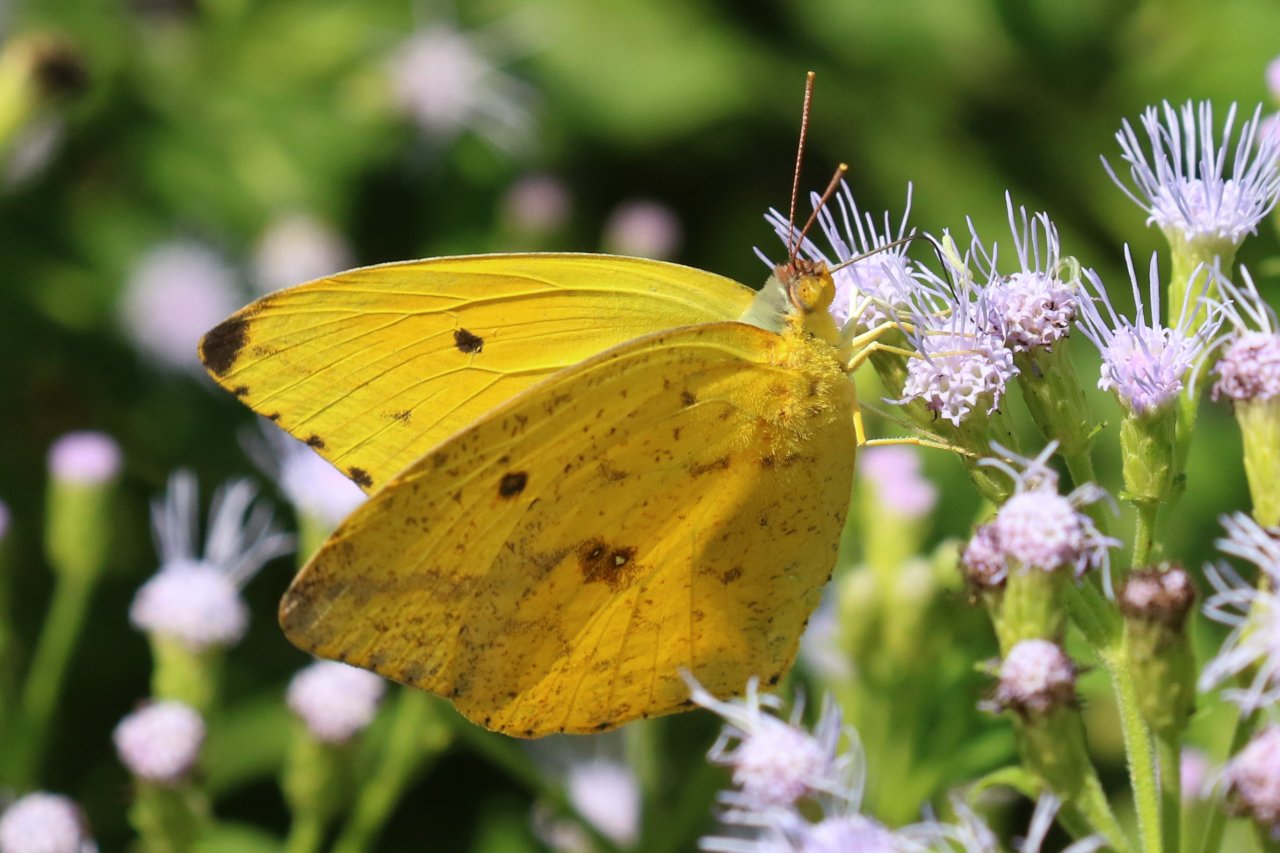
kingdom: Animalia
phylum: Arthropoda
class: Insecta
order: Lepidoptera
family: Pieridae
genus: Phoebis
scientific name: Phoebis agarithe
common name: Large Orange Sulphur
